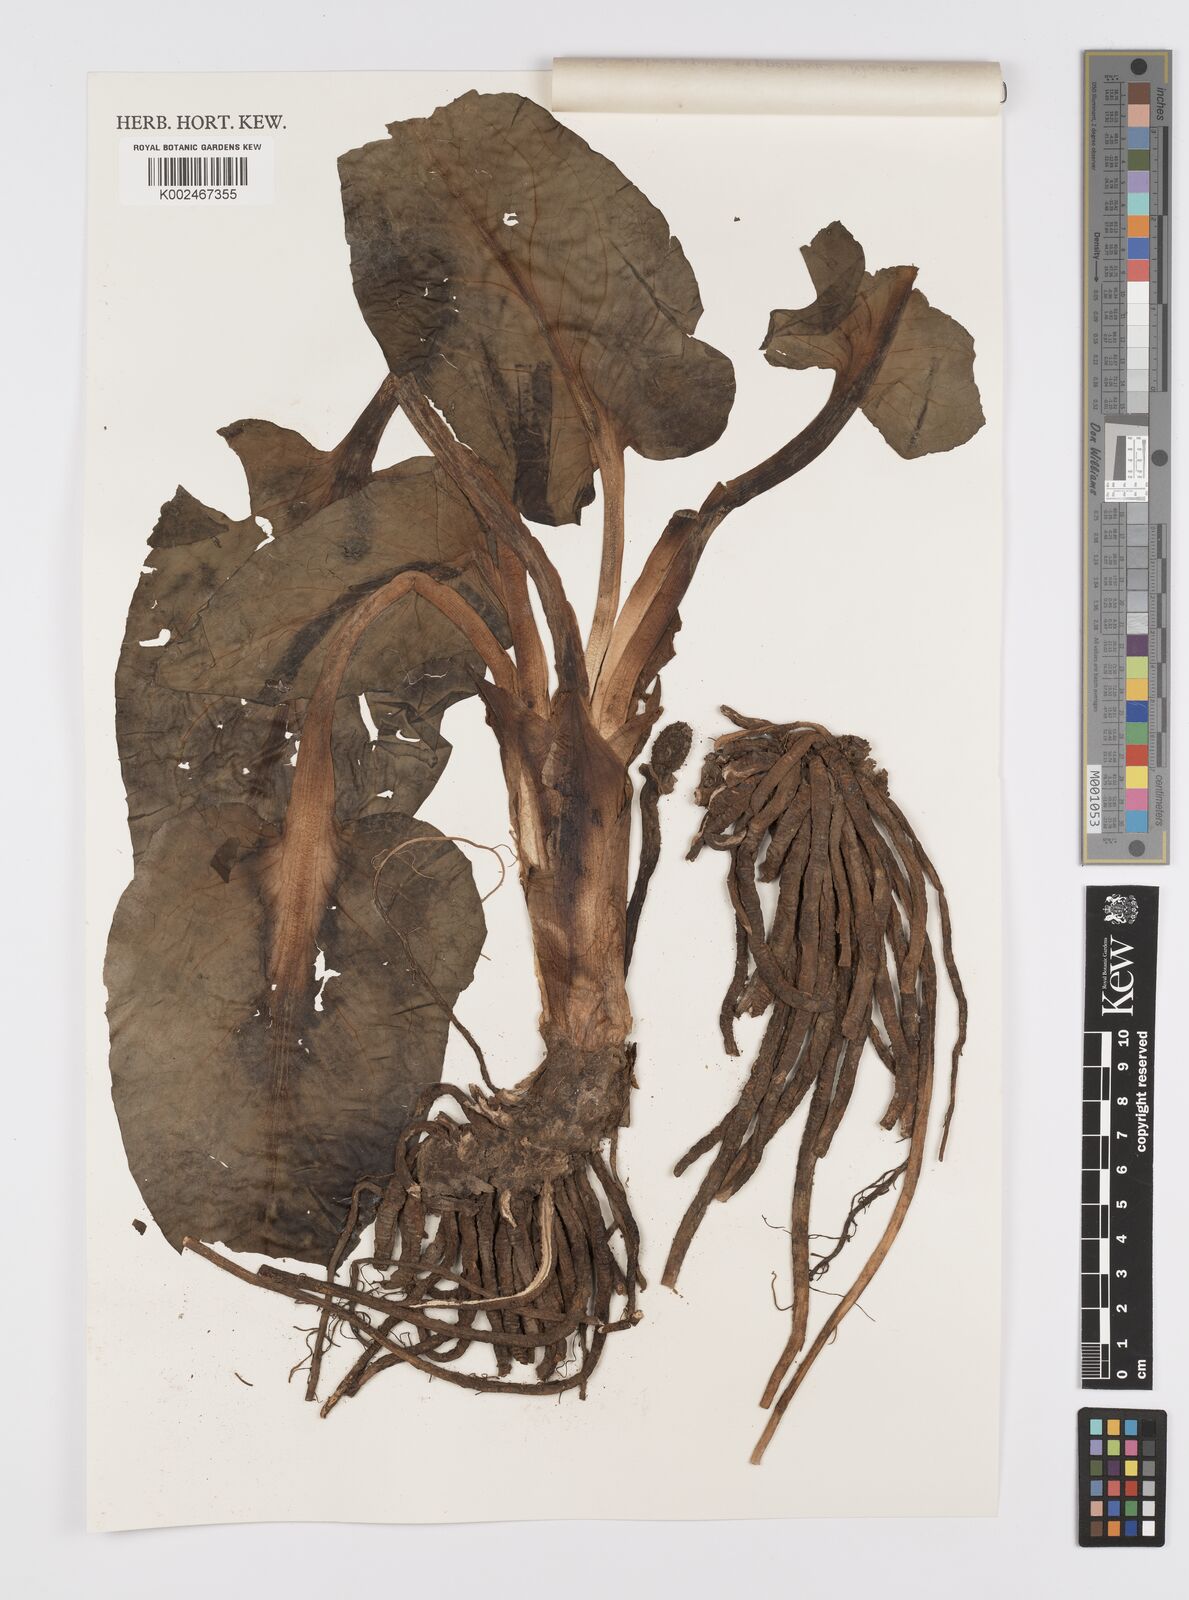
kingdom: Plantae
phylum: Tracheophyta
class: Liliopsida
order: Alismatales
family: Araceae
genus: Symplocarpus
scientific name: Symplocarpus nipponicus
